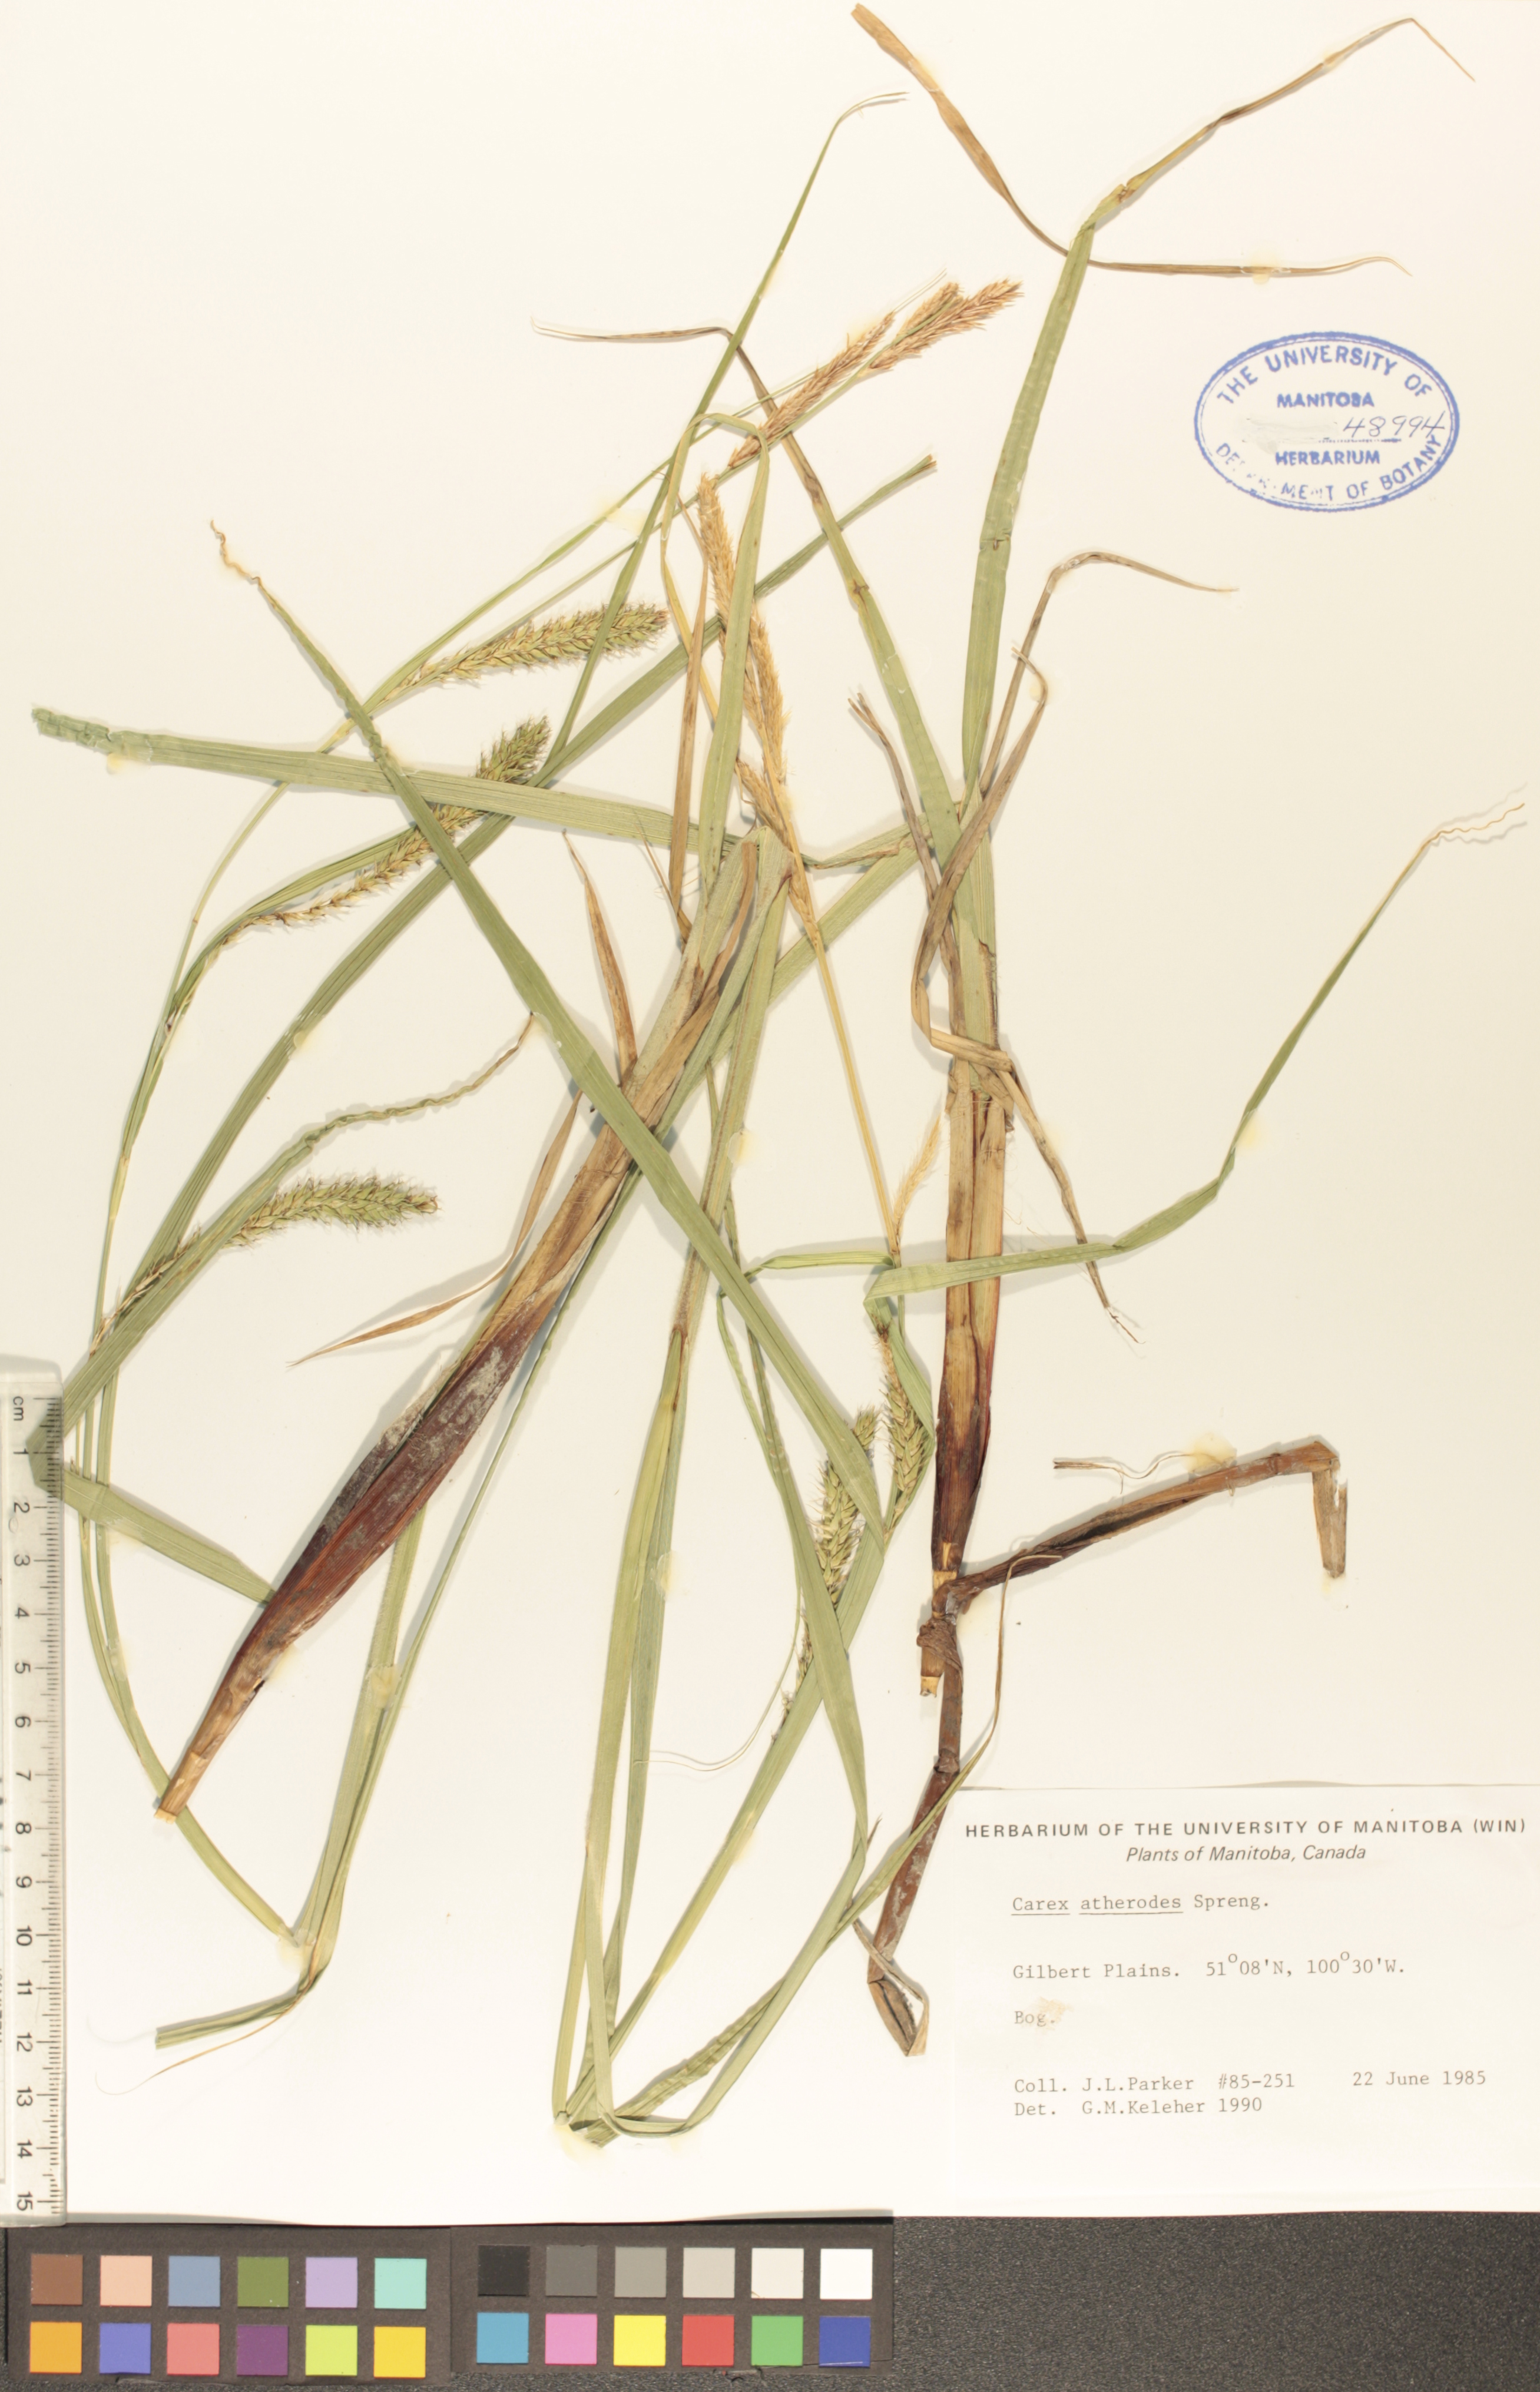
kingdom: Plantae
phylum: Tracheophyta
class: Liliopsida
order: Poales
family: Cyperaceae
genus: Carex
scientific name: Carex atherodes
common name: Wheat sedge
